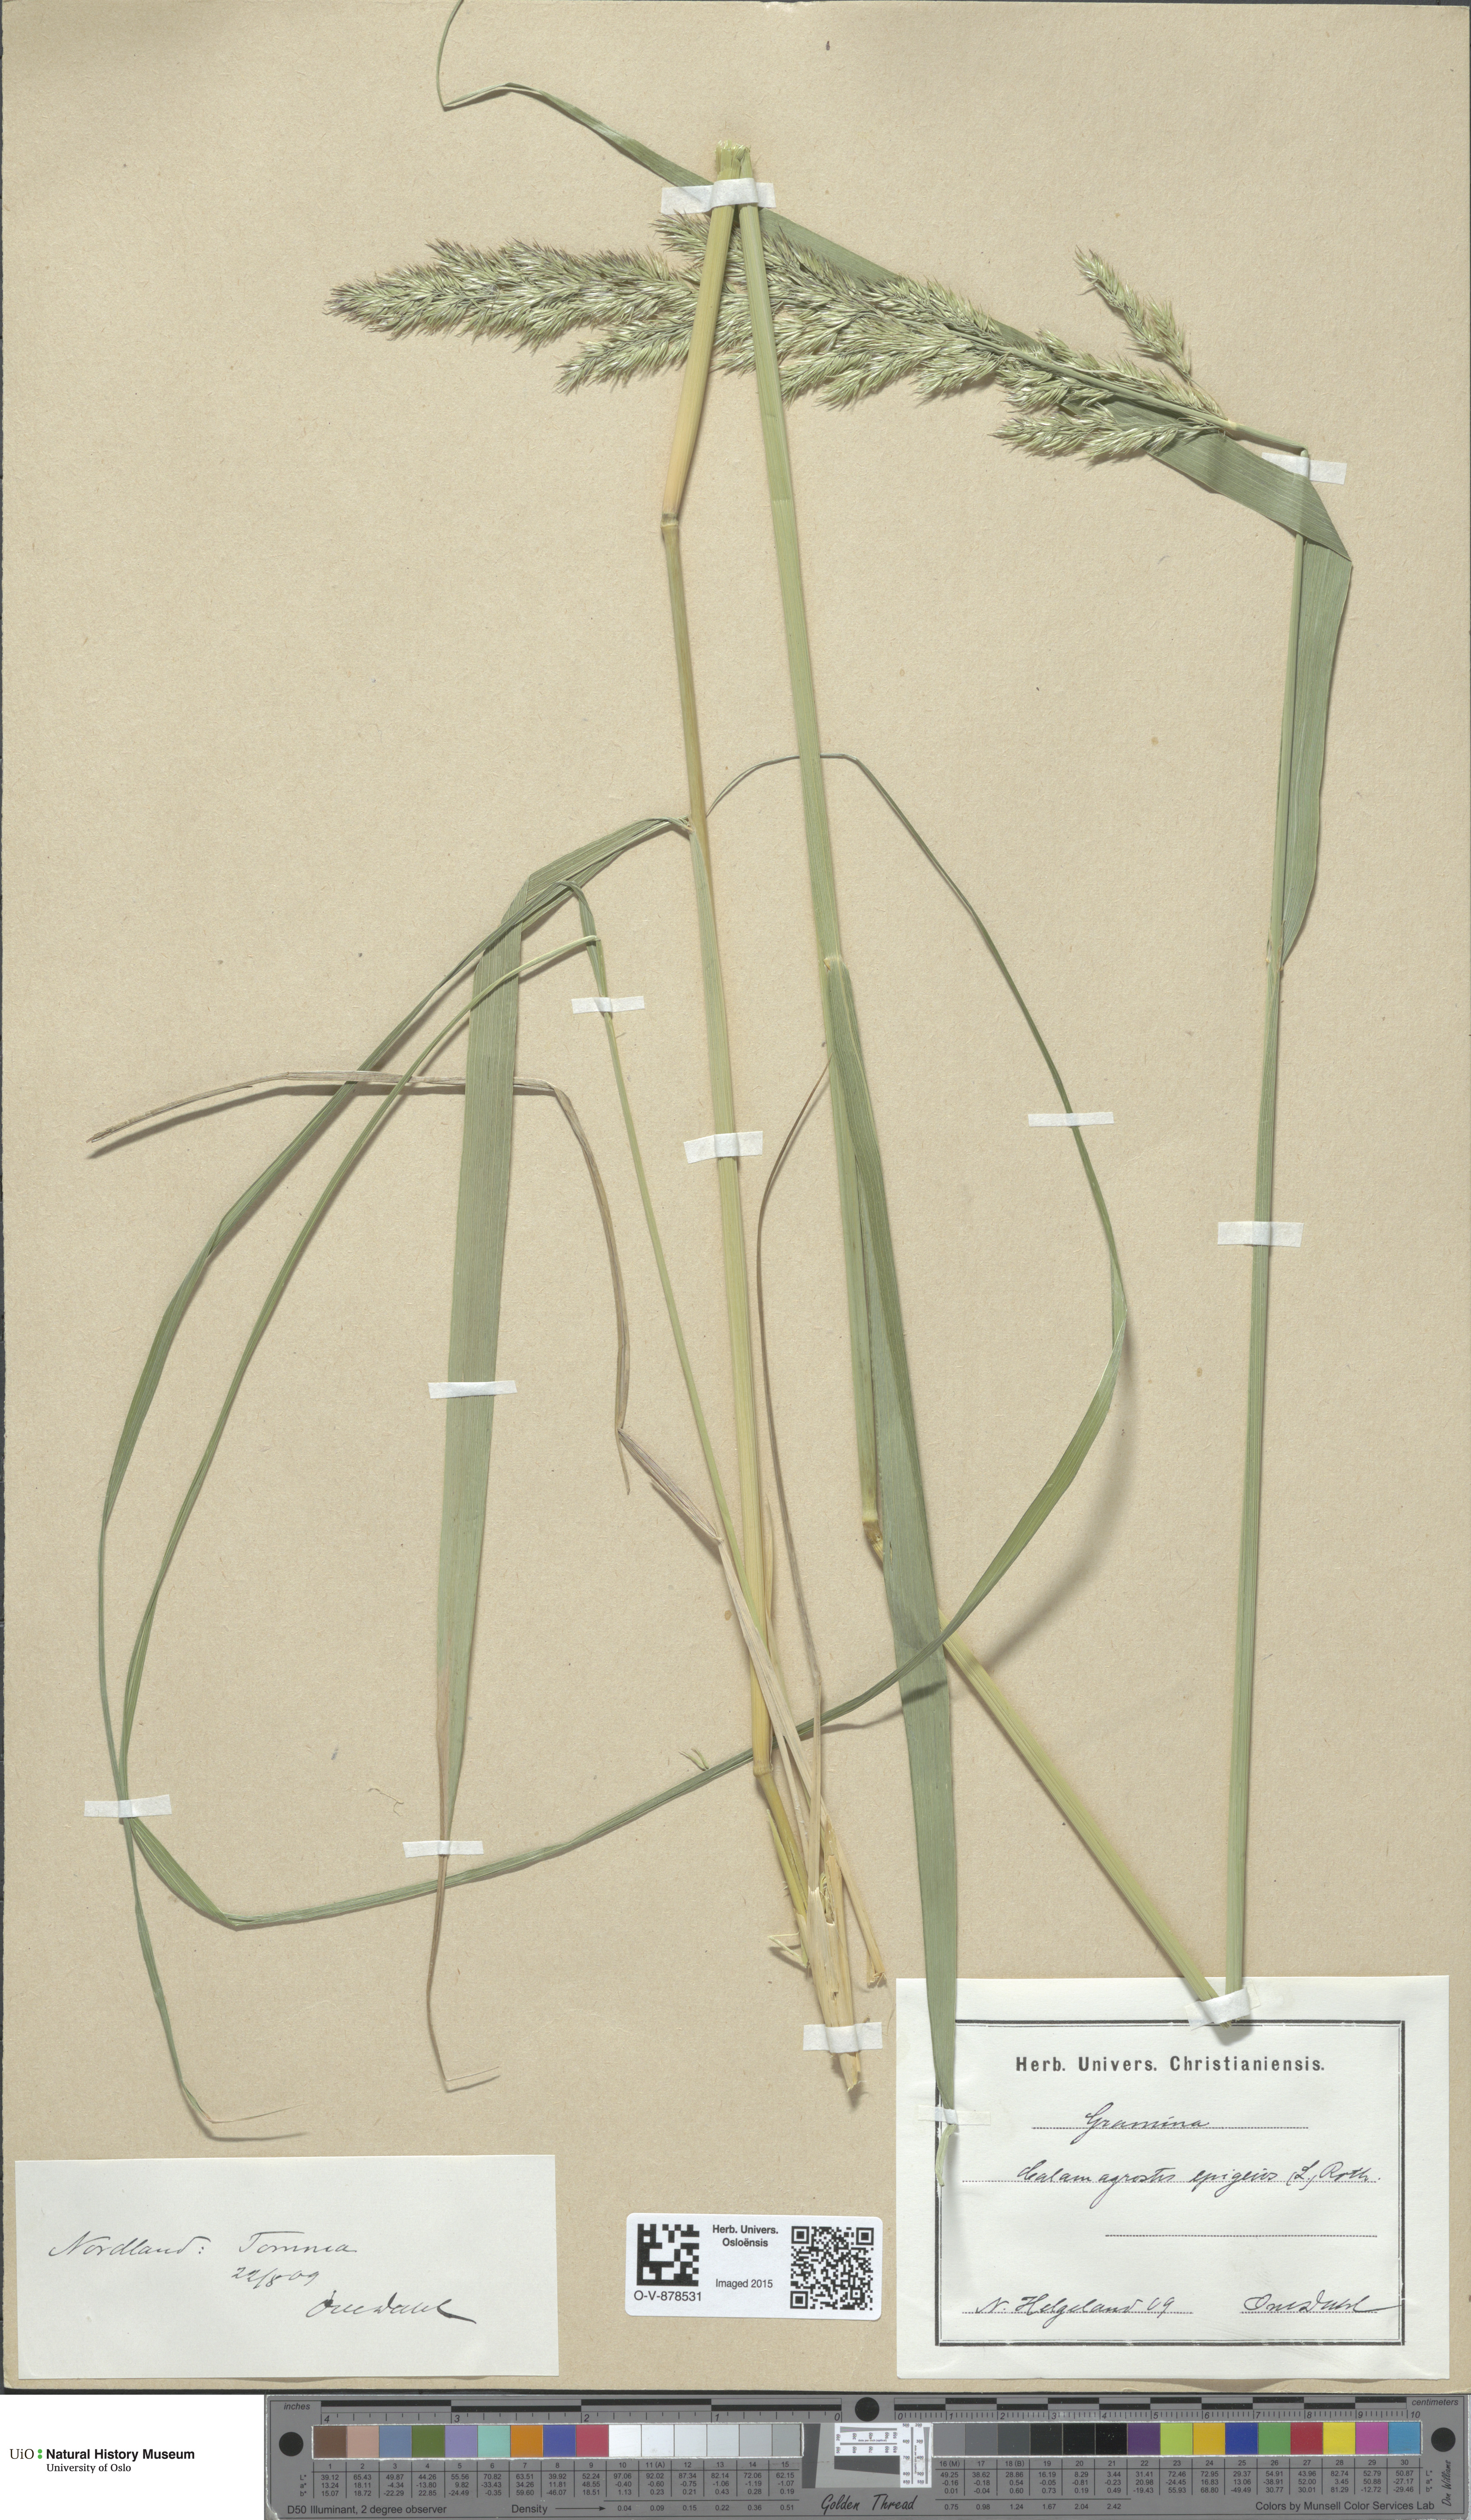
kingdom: Plantae
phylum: Tracheophyta
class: Liliopsida
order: Poales
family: Poaceae
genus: Calamagrostis
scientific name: Calamagrostis epigejos
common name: Wood small-reed
